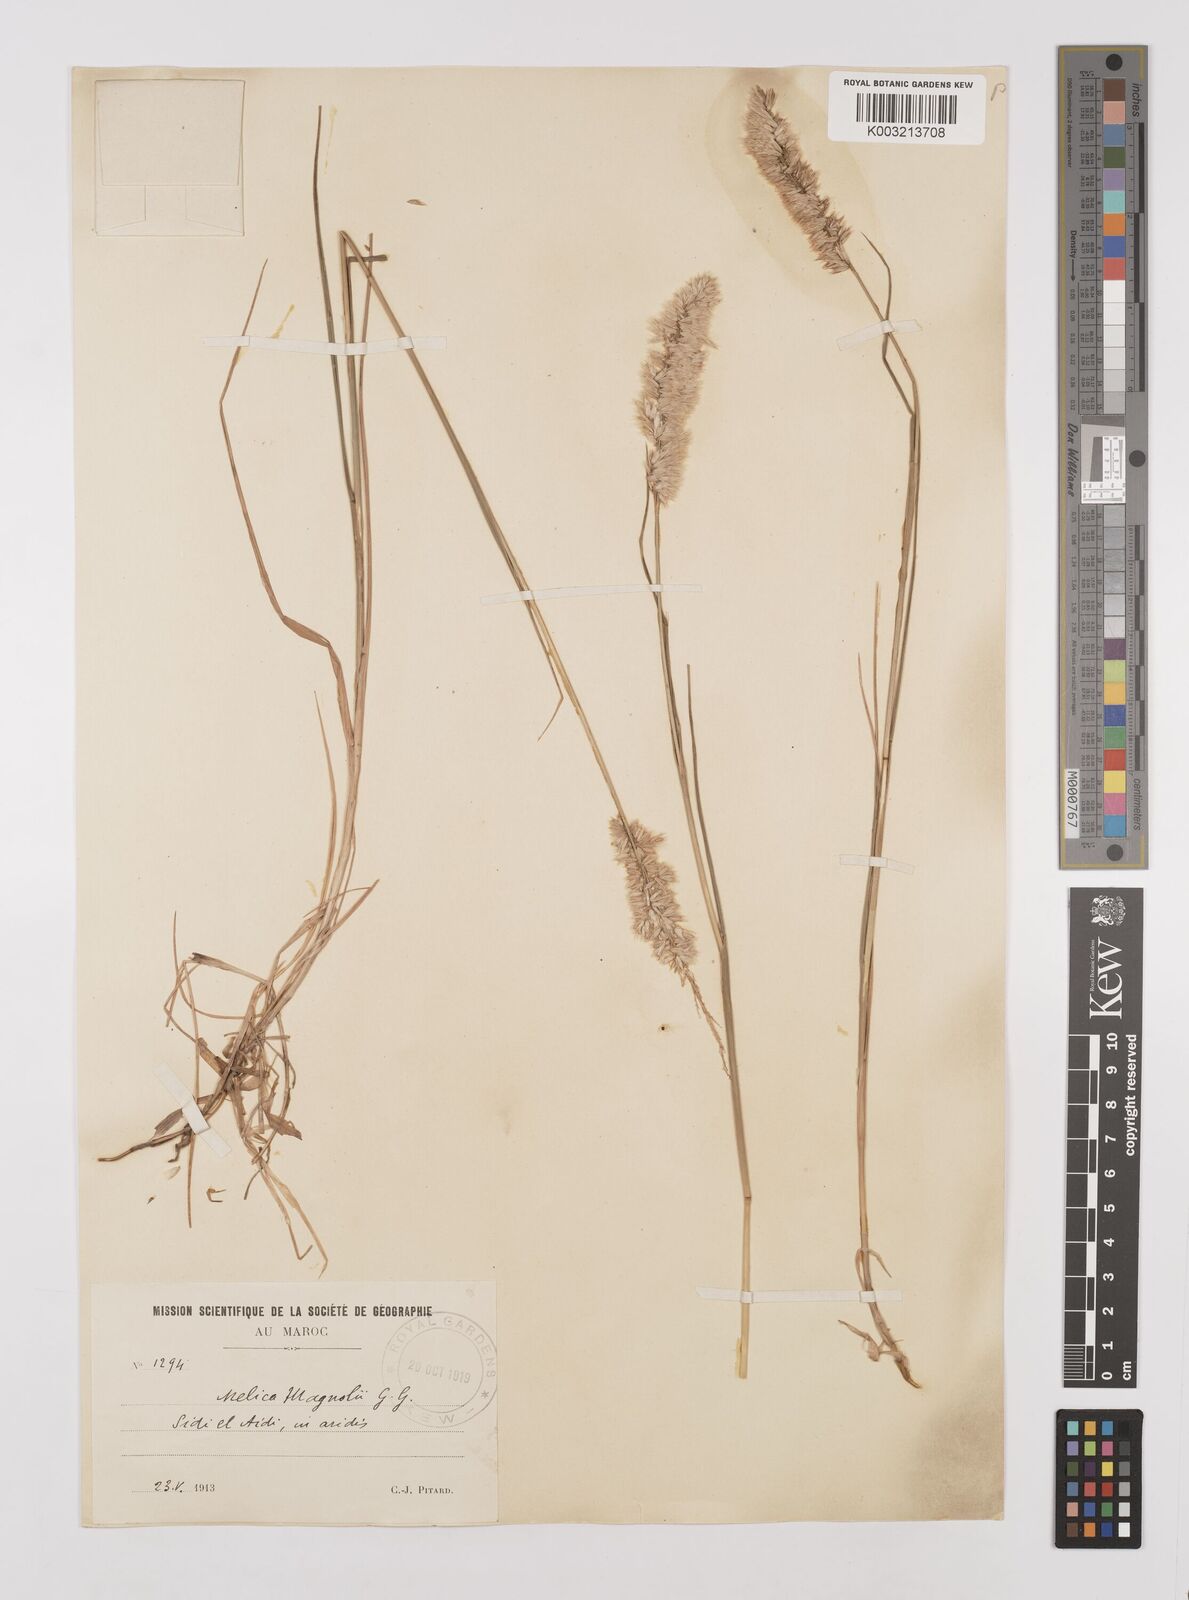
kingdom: Plantae
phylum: Tracheophyta
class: Liliopsida
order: Poales
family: Poaceae
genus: Melica
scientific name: Melica violacea
